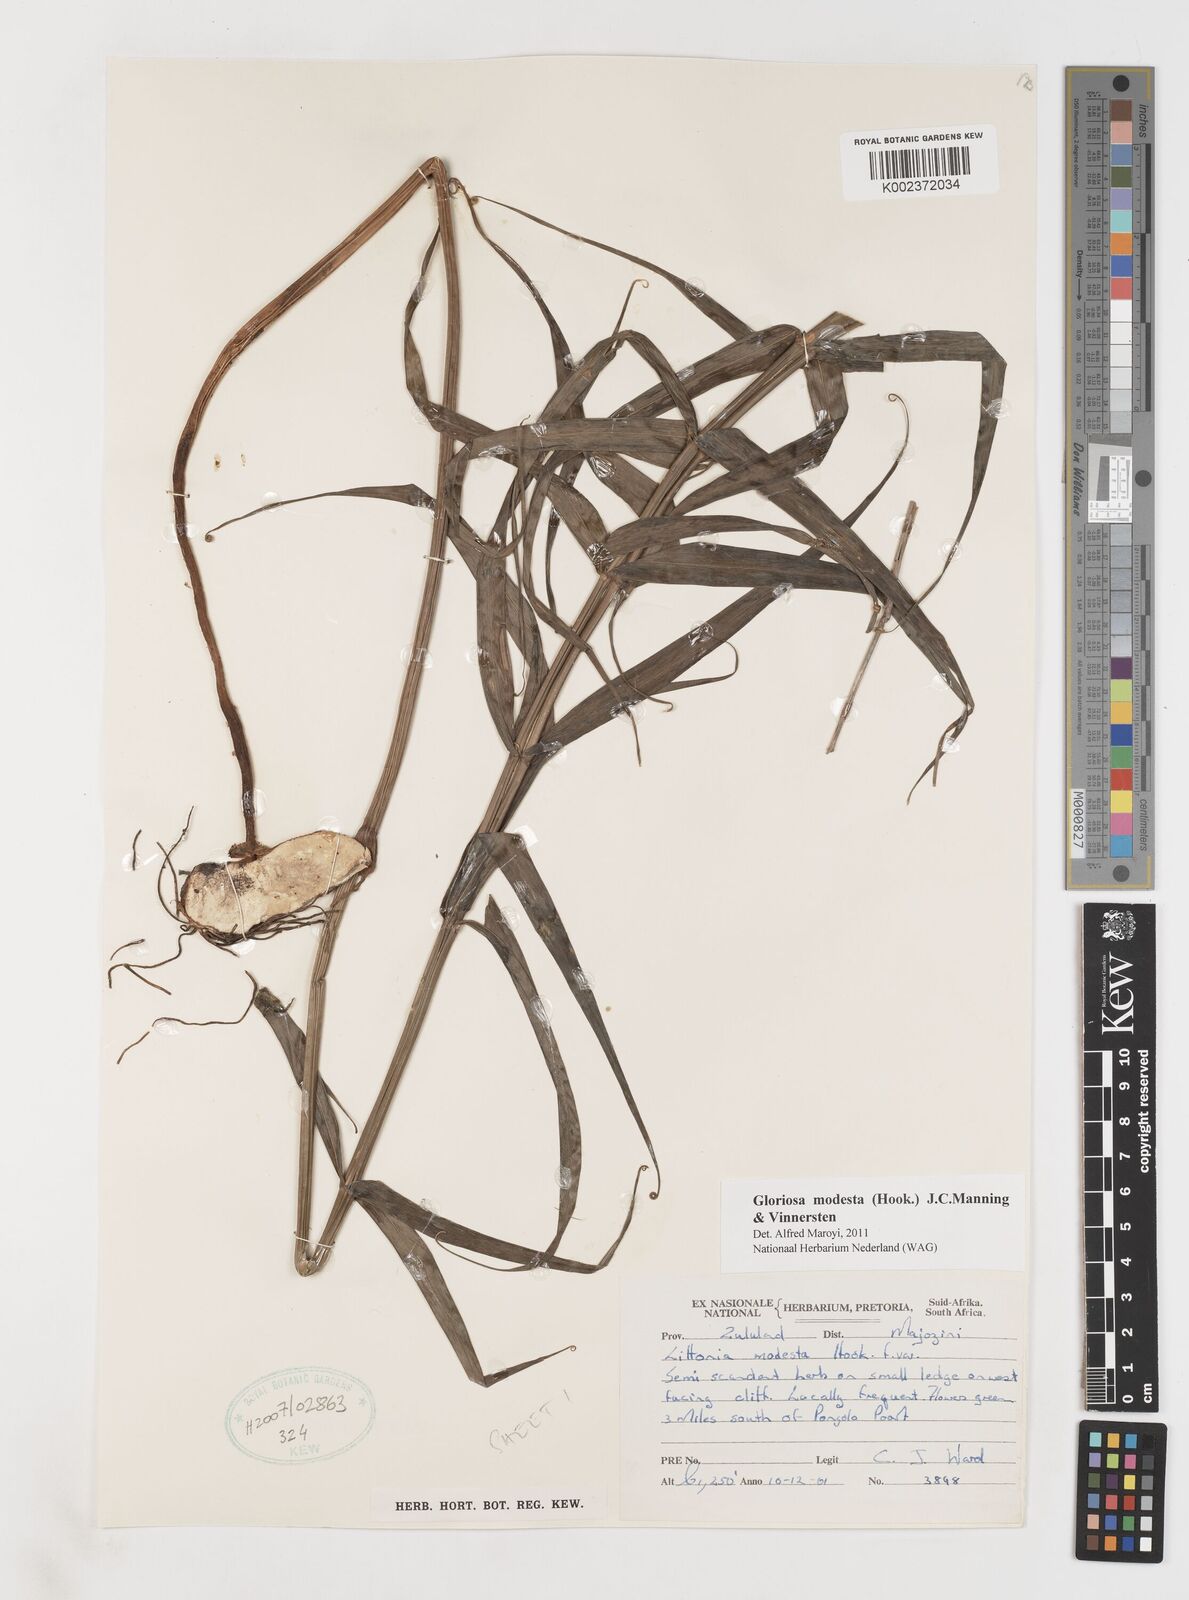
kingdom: Plantae
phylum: Tracheophyta
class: Liliopsida
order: Liliales
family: Colchicaceae
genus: Gloriosa
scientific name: Gloriosa modesta
